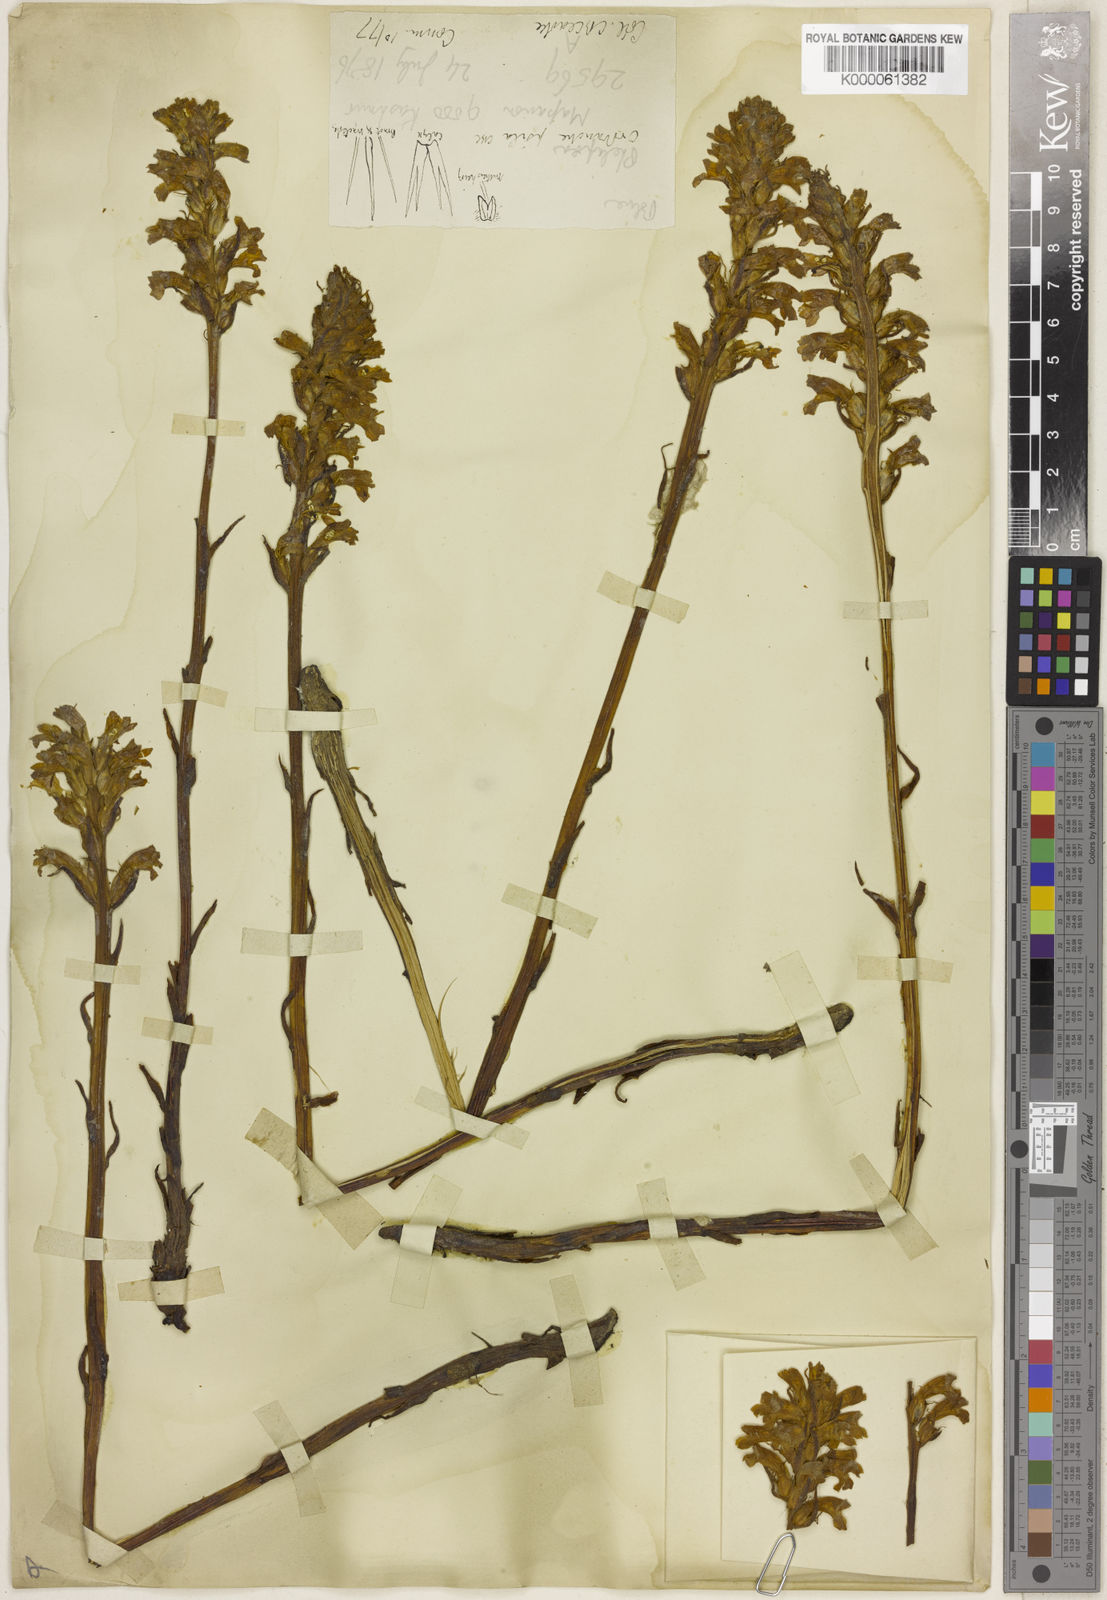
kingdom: Plantae
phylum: Tracheophyta
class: Magnoliopsida
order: Lamiales
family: Orobanchaceae
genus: Phelipanche
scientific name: Phelipanche psila
